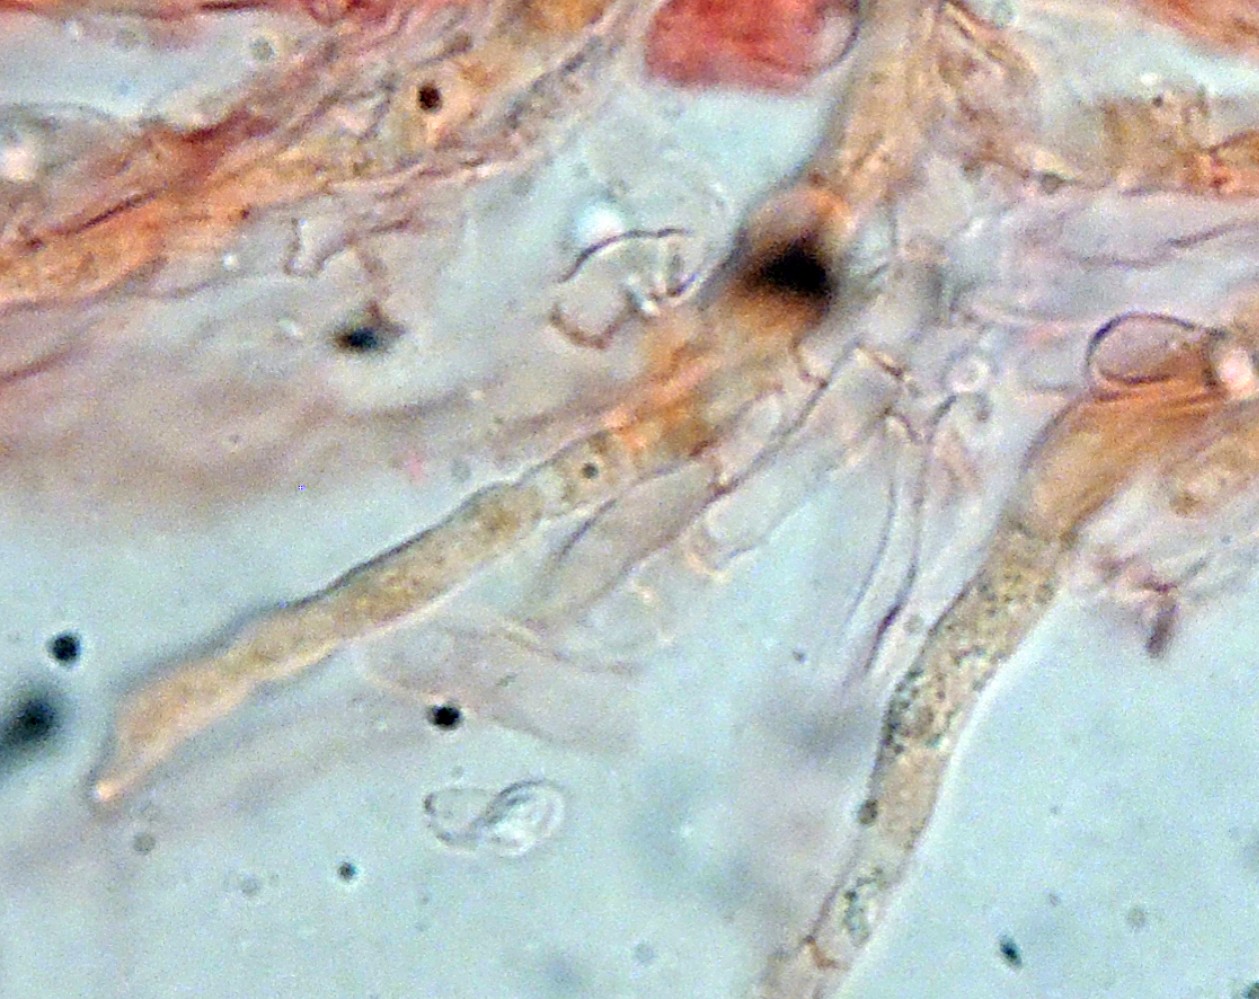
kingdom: Fungi
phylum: Basidiomycota
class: Agaricomycetes
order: Agaricales
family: Clavariaceae
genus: Clavaria
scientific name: Clavaria rosea
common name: rosenrød køllesvamp
